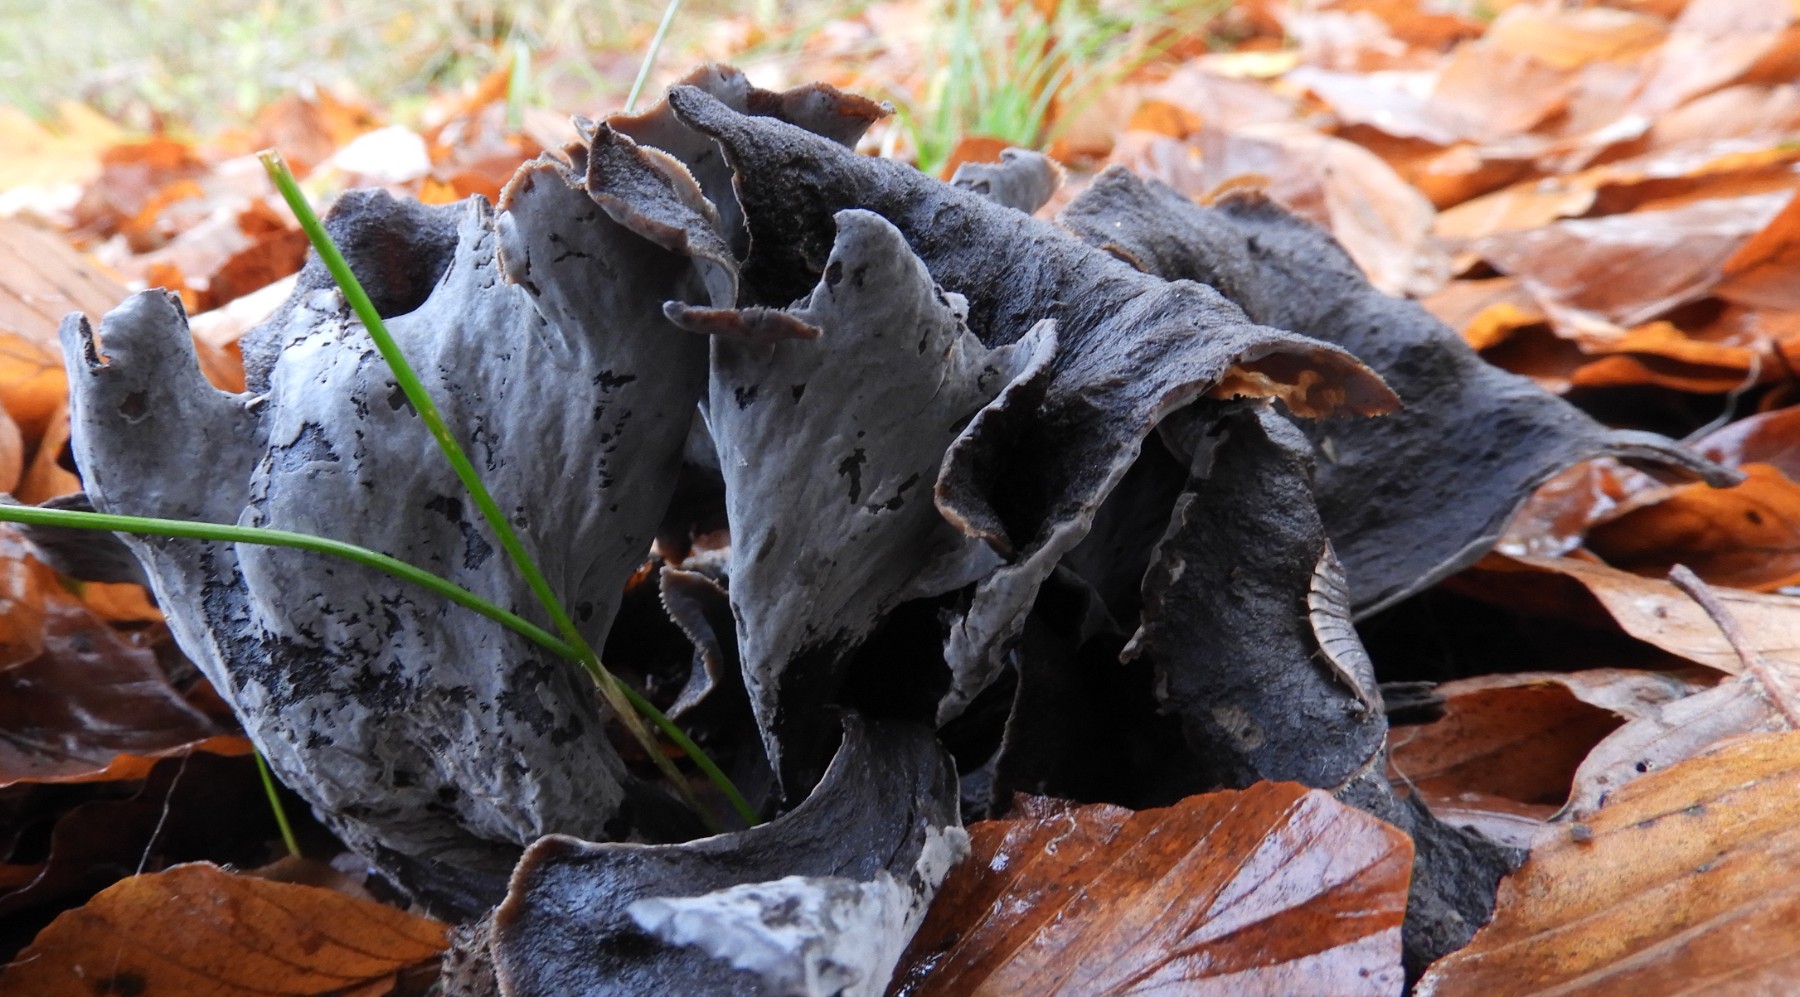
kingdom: Fungi
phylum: Basidiomycota
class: Agaricomycetes
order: Cantharellales
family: Hydnaceae
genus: Craterellus
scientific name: Craterellus cornucopioides
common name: trompetsvamp
